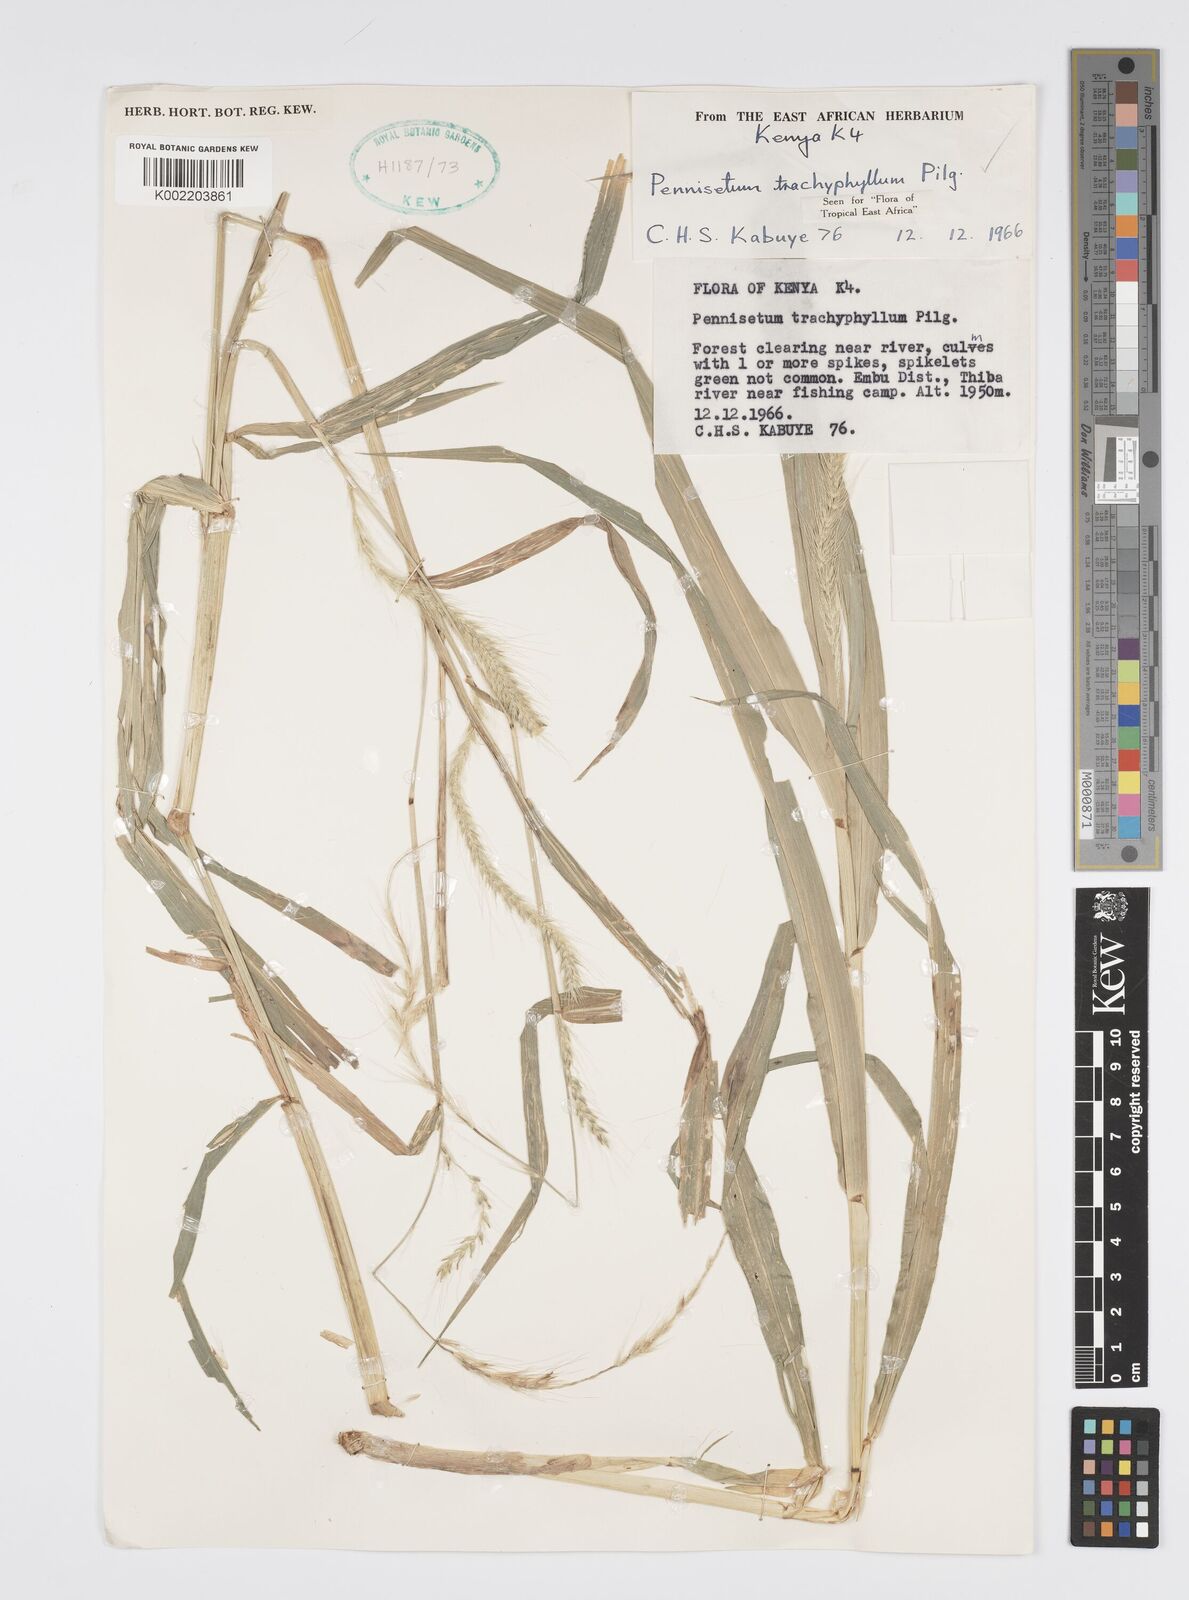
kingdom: Plantae
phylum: Tracheophyta
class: Liliopsida
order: Poales
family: Poaceae
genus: Cenchrus
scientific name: Cenchrus trachyphyllus
